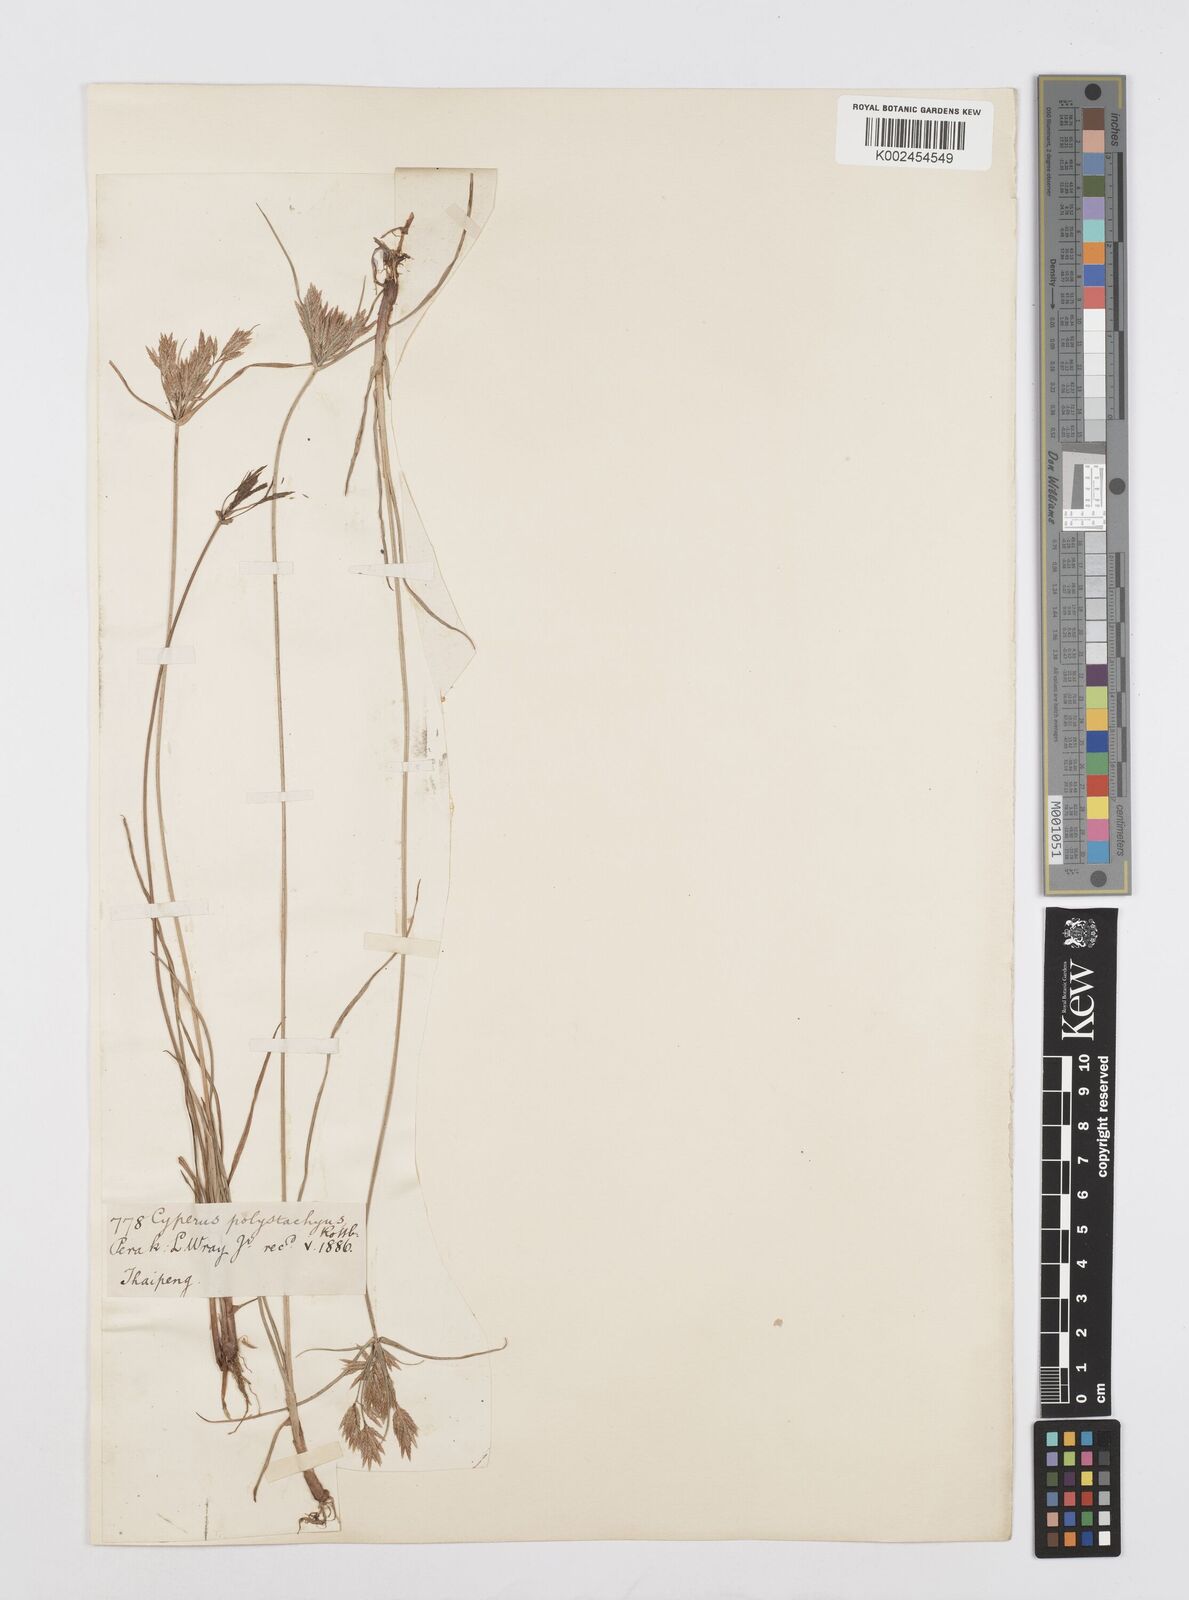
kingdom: Plantae
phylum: Tracheophyta
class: Liliopsida
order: Poales
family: Cyperaceae
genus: Cyperus
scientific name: Cyperus polystachyos
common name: Bunchy flat sedge
